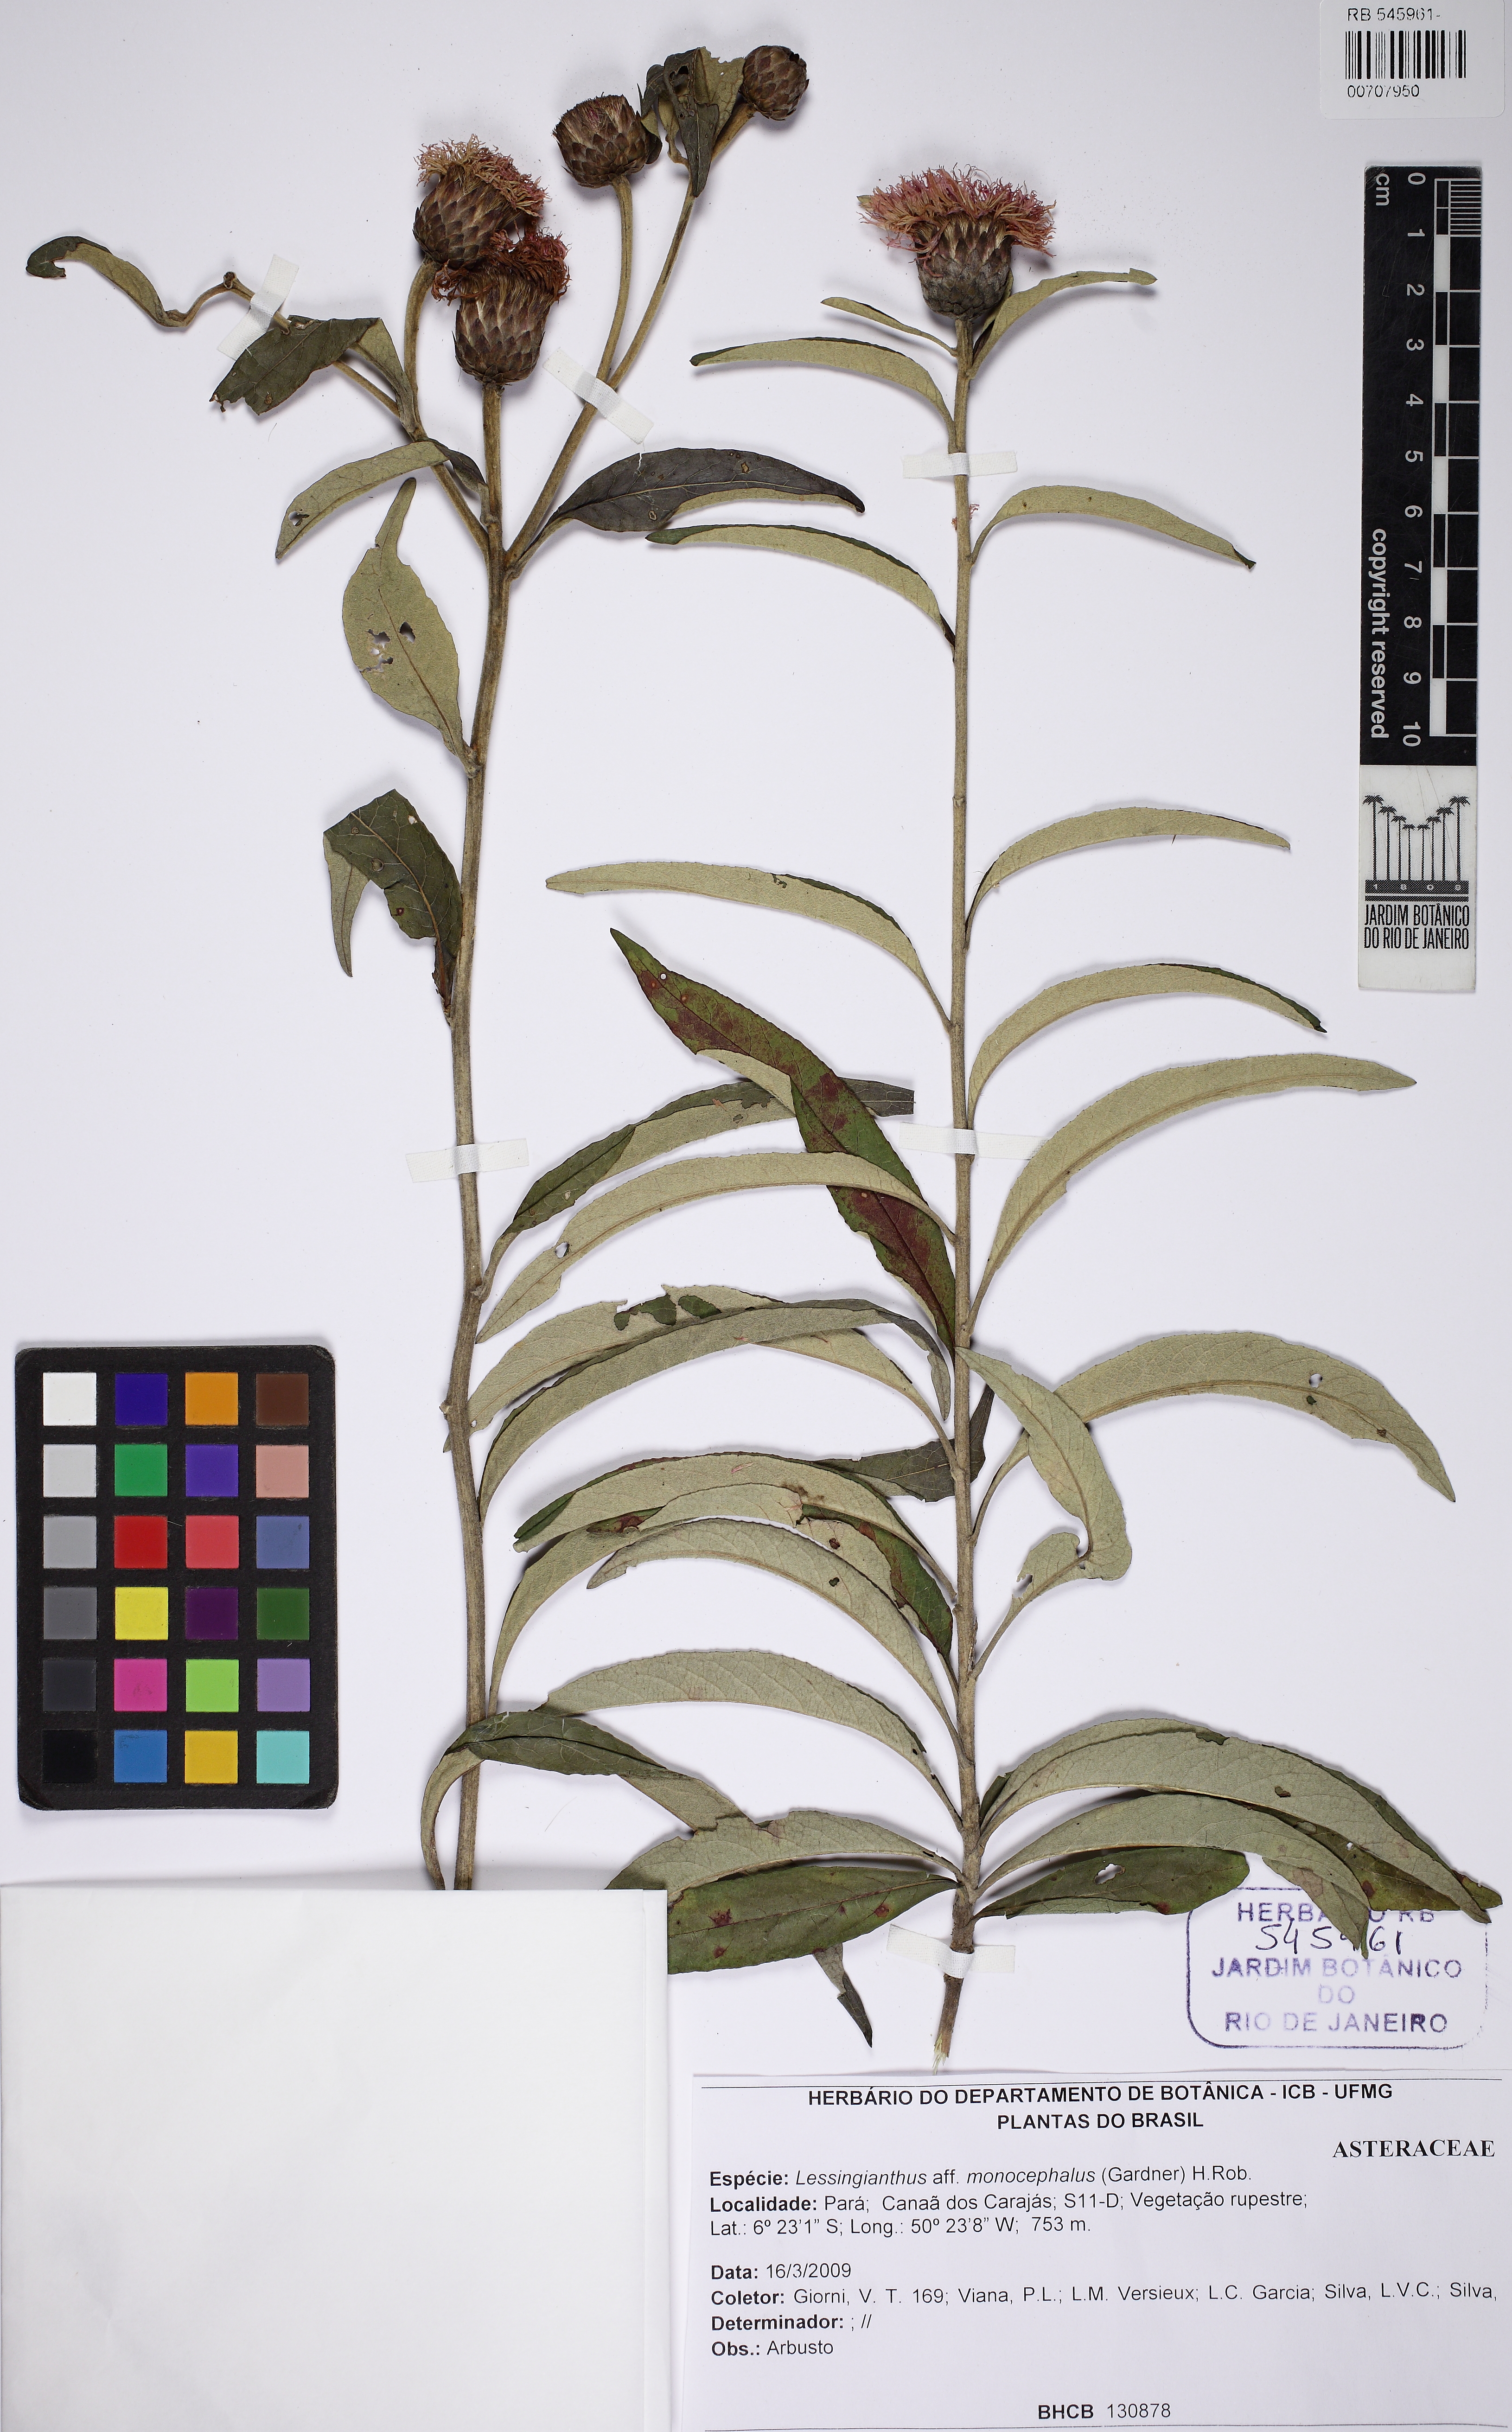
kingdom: Plantae
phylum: Tracheophyta
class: Magnoliopsida
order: Asterales
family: Asteraceae
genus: Lessingianthus
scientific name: Lessingianthus monocephalus
